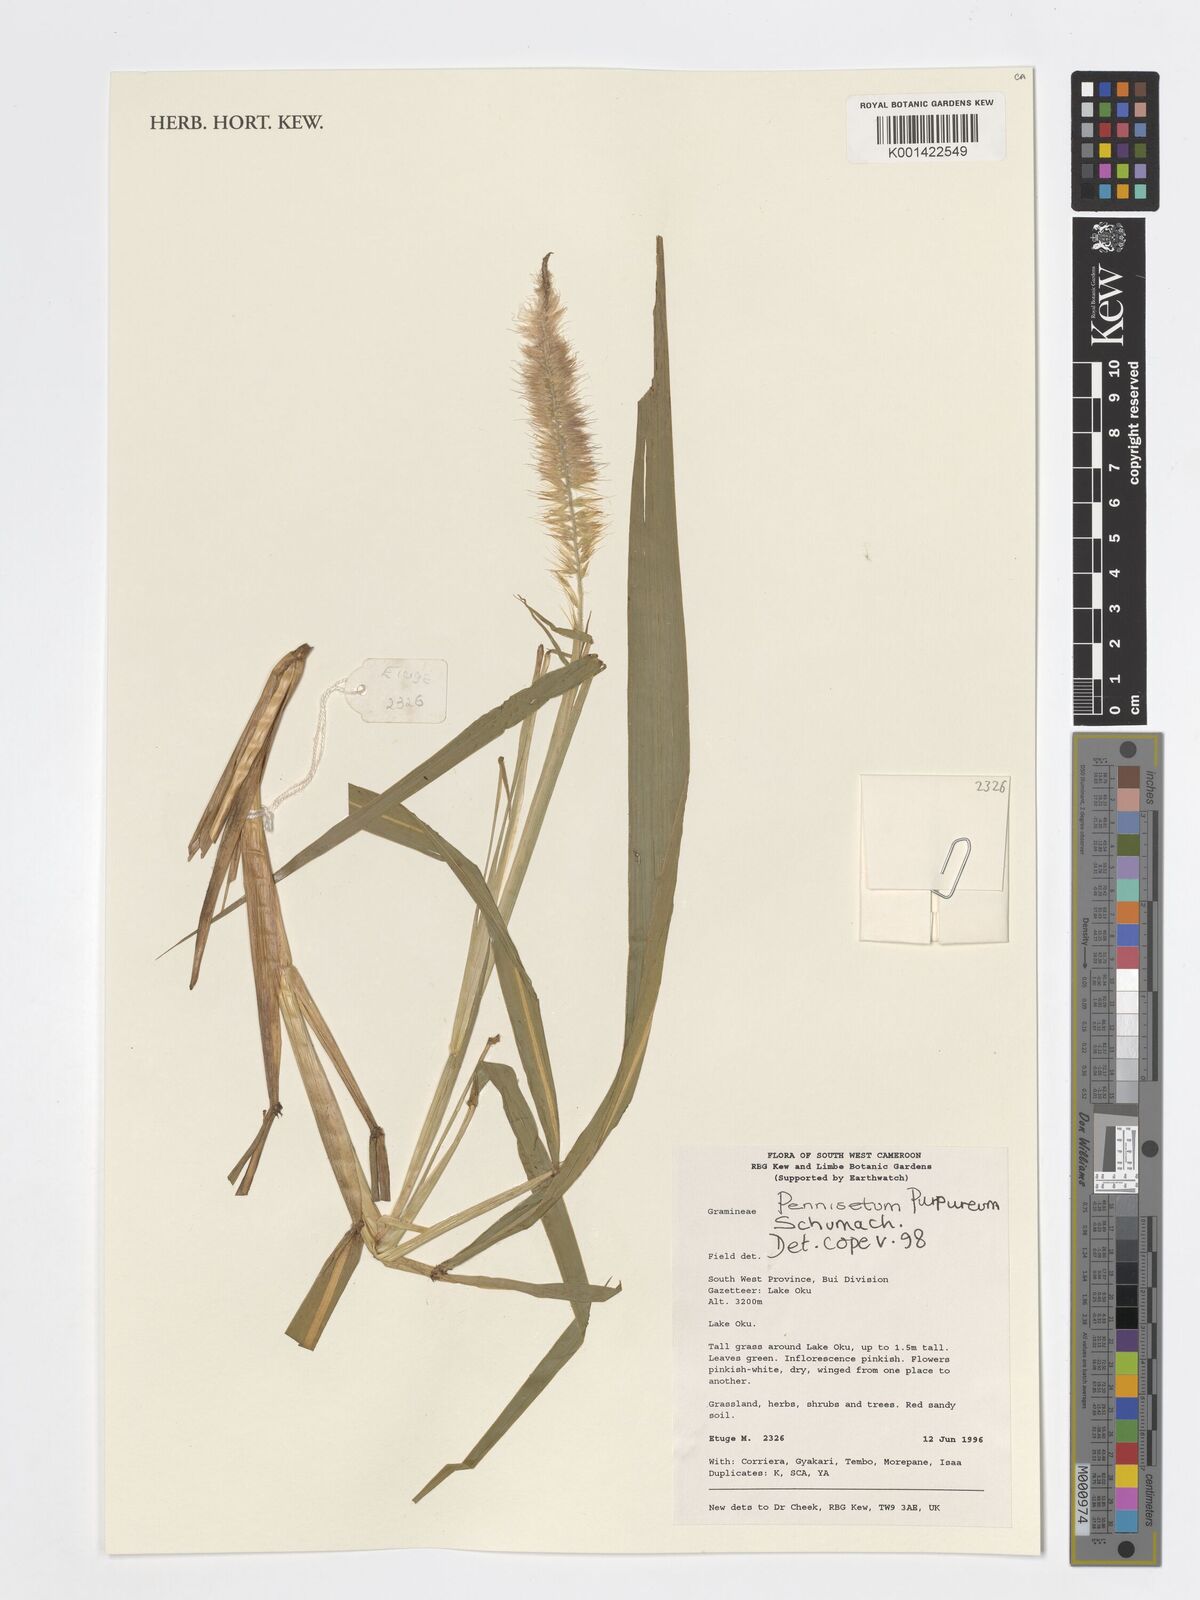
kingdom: Plantae
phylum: Tracheophyta
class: Liliopsida
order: Poales
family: Poaceae
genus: Cenchrus
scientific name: Cenchrus purpureus
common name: Elephant grass
